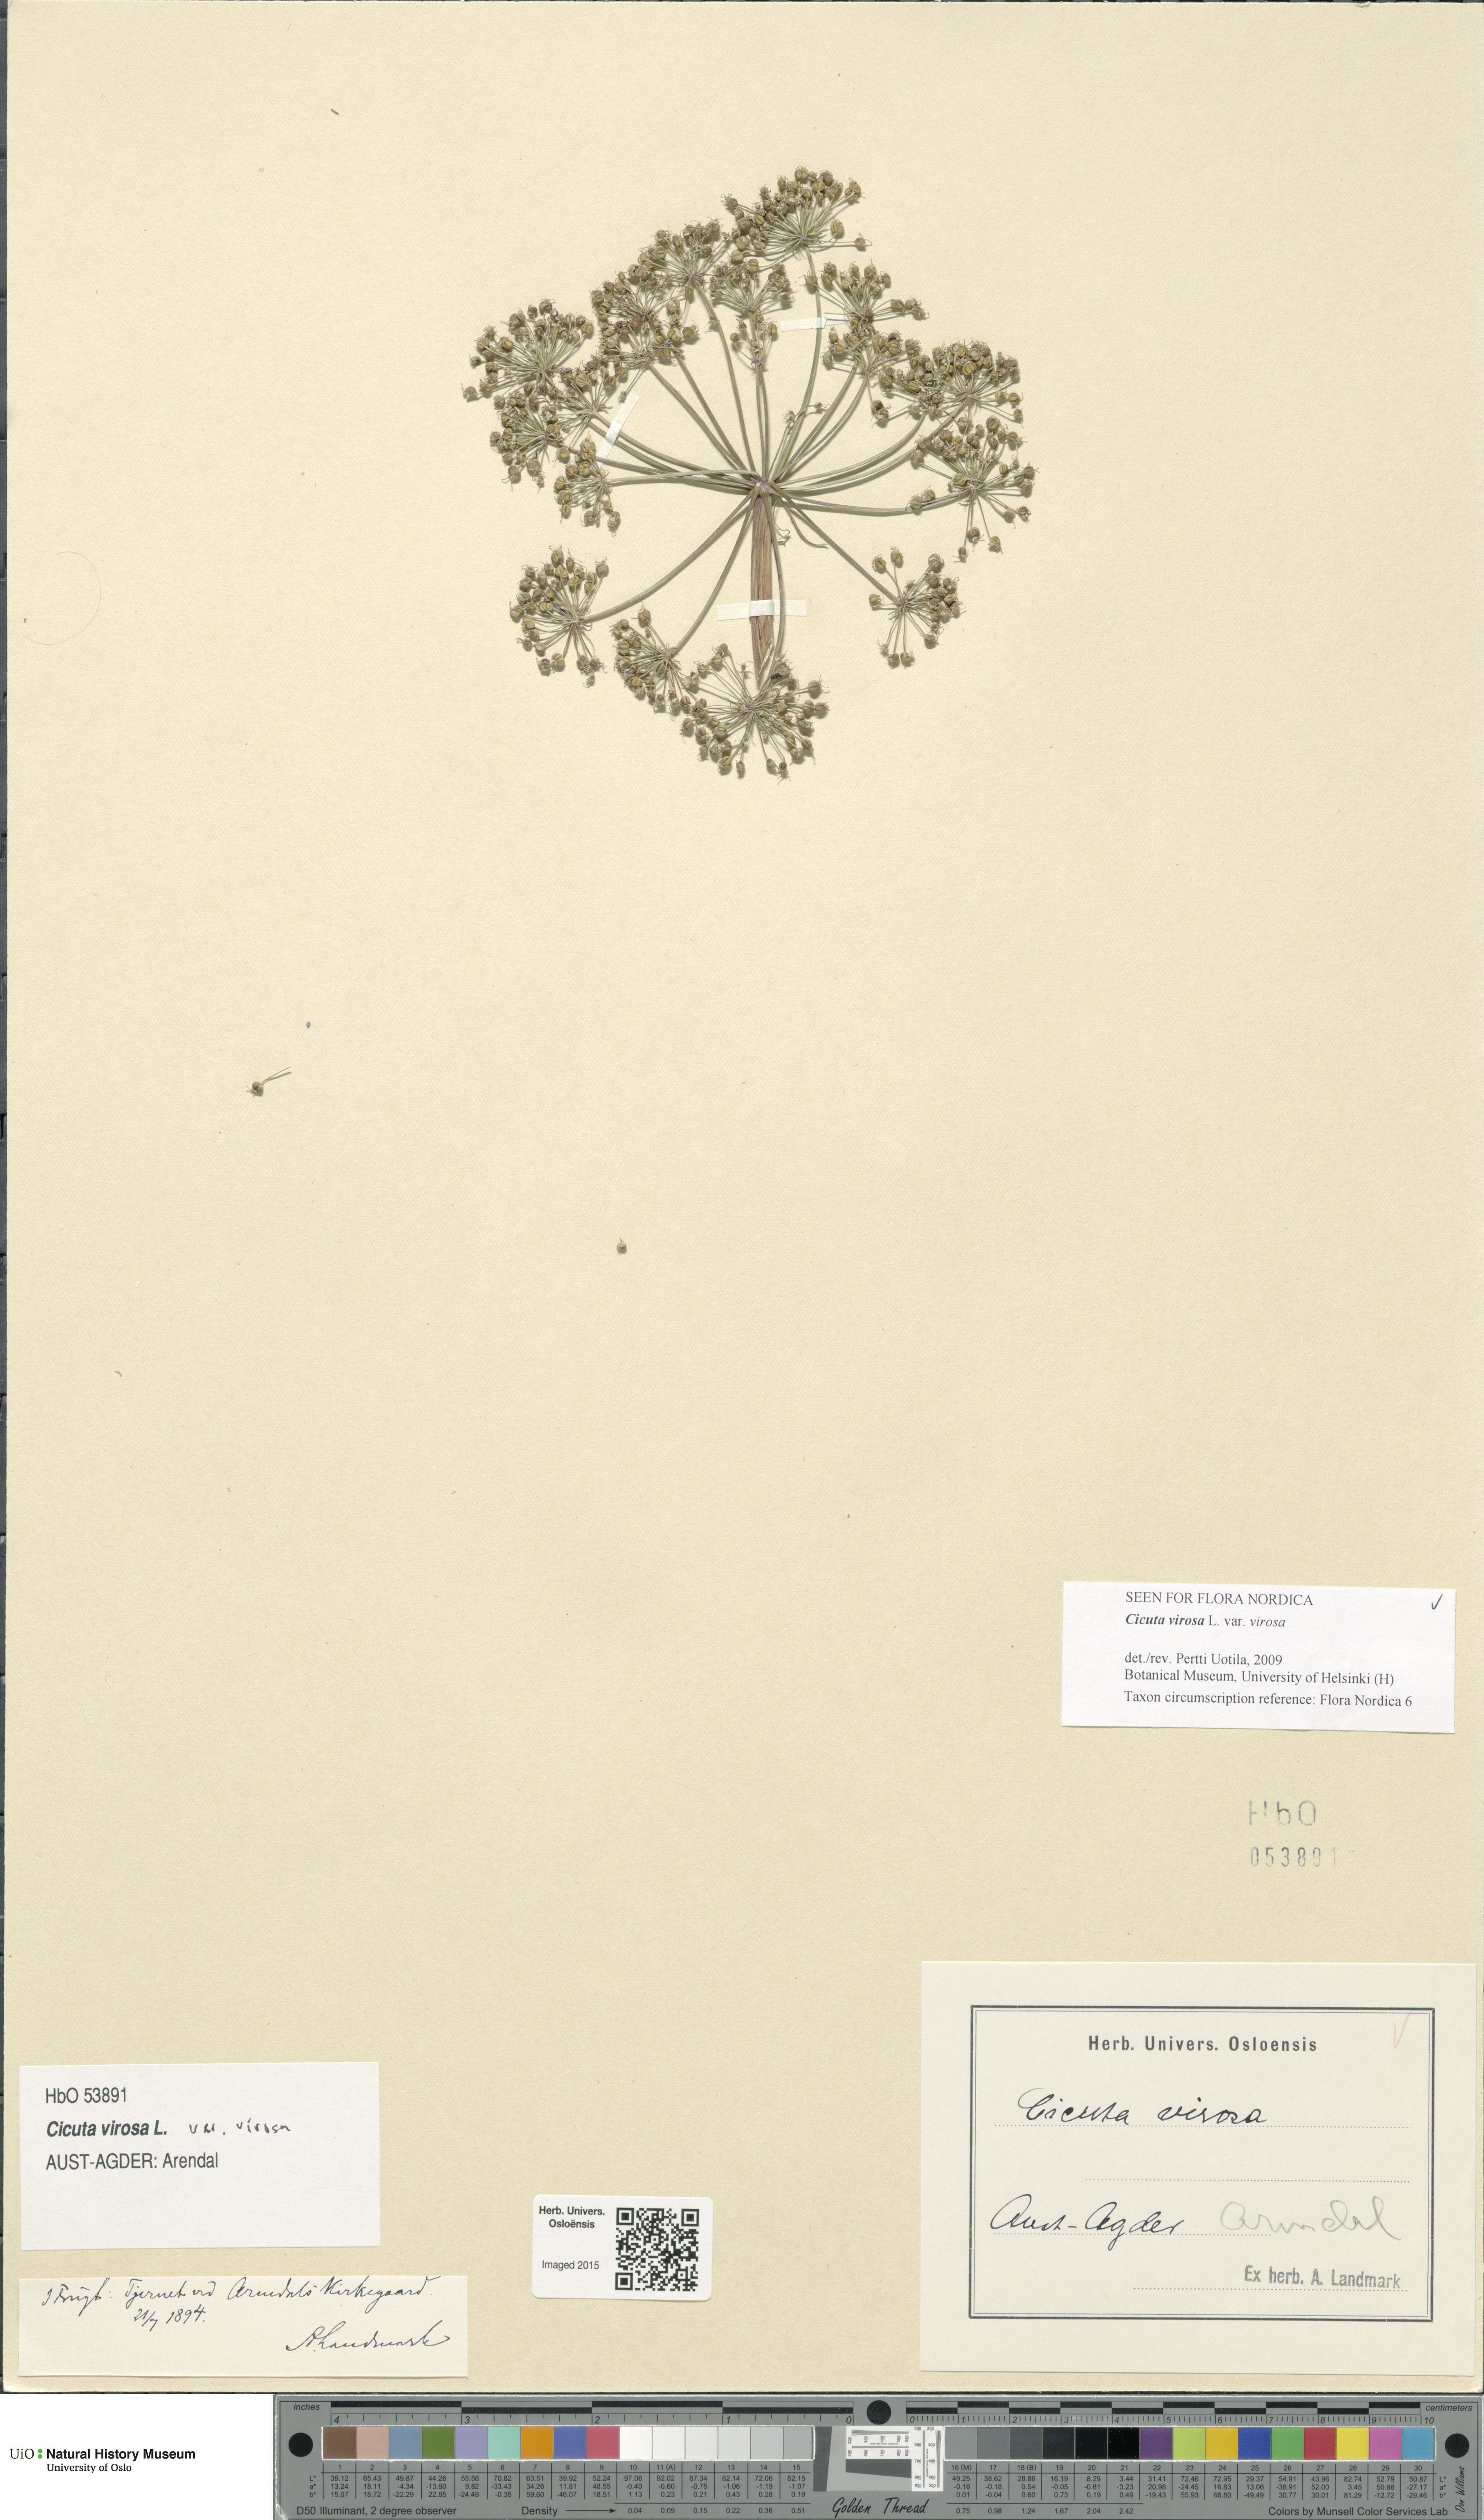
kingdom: Plantae
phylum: Tracheophyta
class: Magnoliopsida
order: Apiales
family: Apiaceae
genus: Cicuta
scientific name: Cicuta virosa
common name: Cowbane
